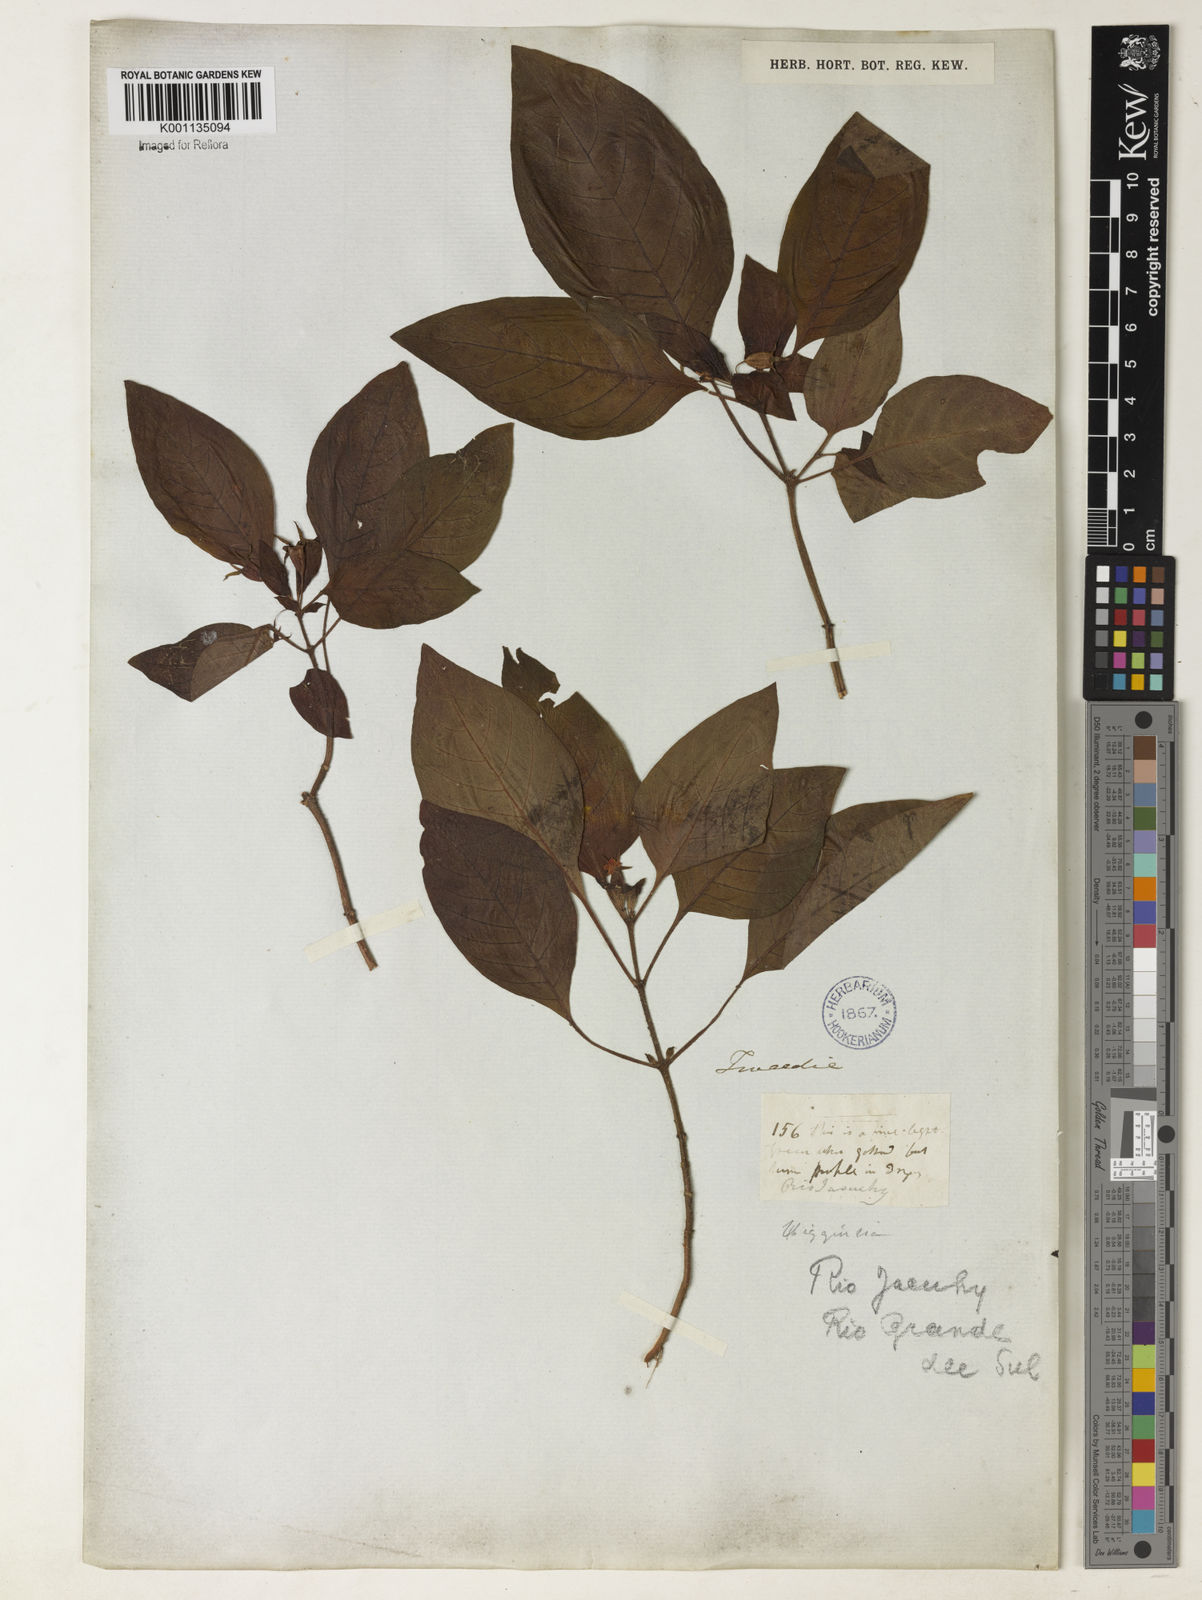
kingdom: Plantae
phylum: Tracheophyta
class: Magnoliopsida
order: Gentianales
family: Rubiaceae
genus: Hoffmannia
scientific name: Hoffmannia
